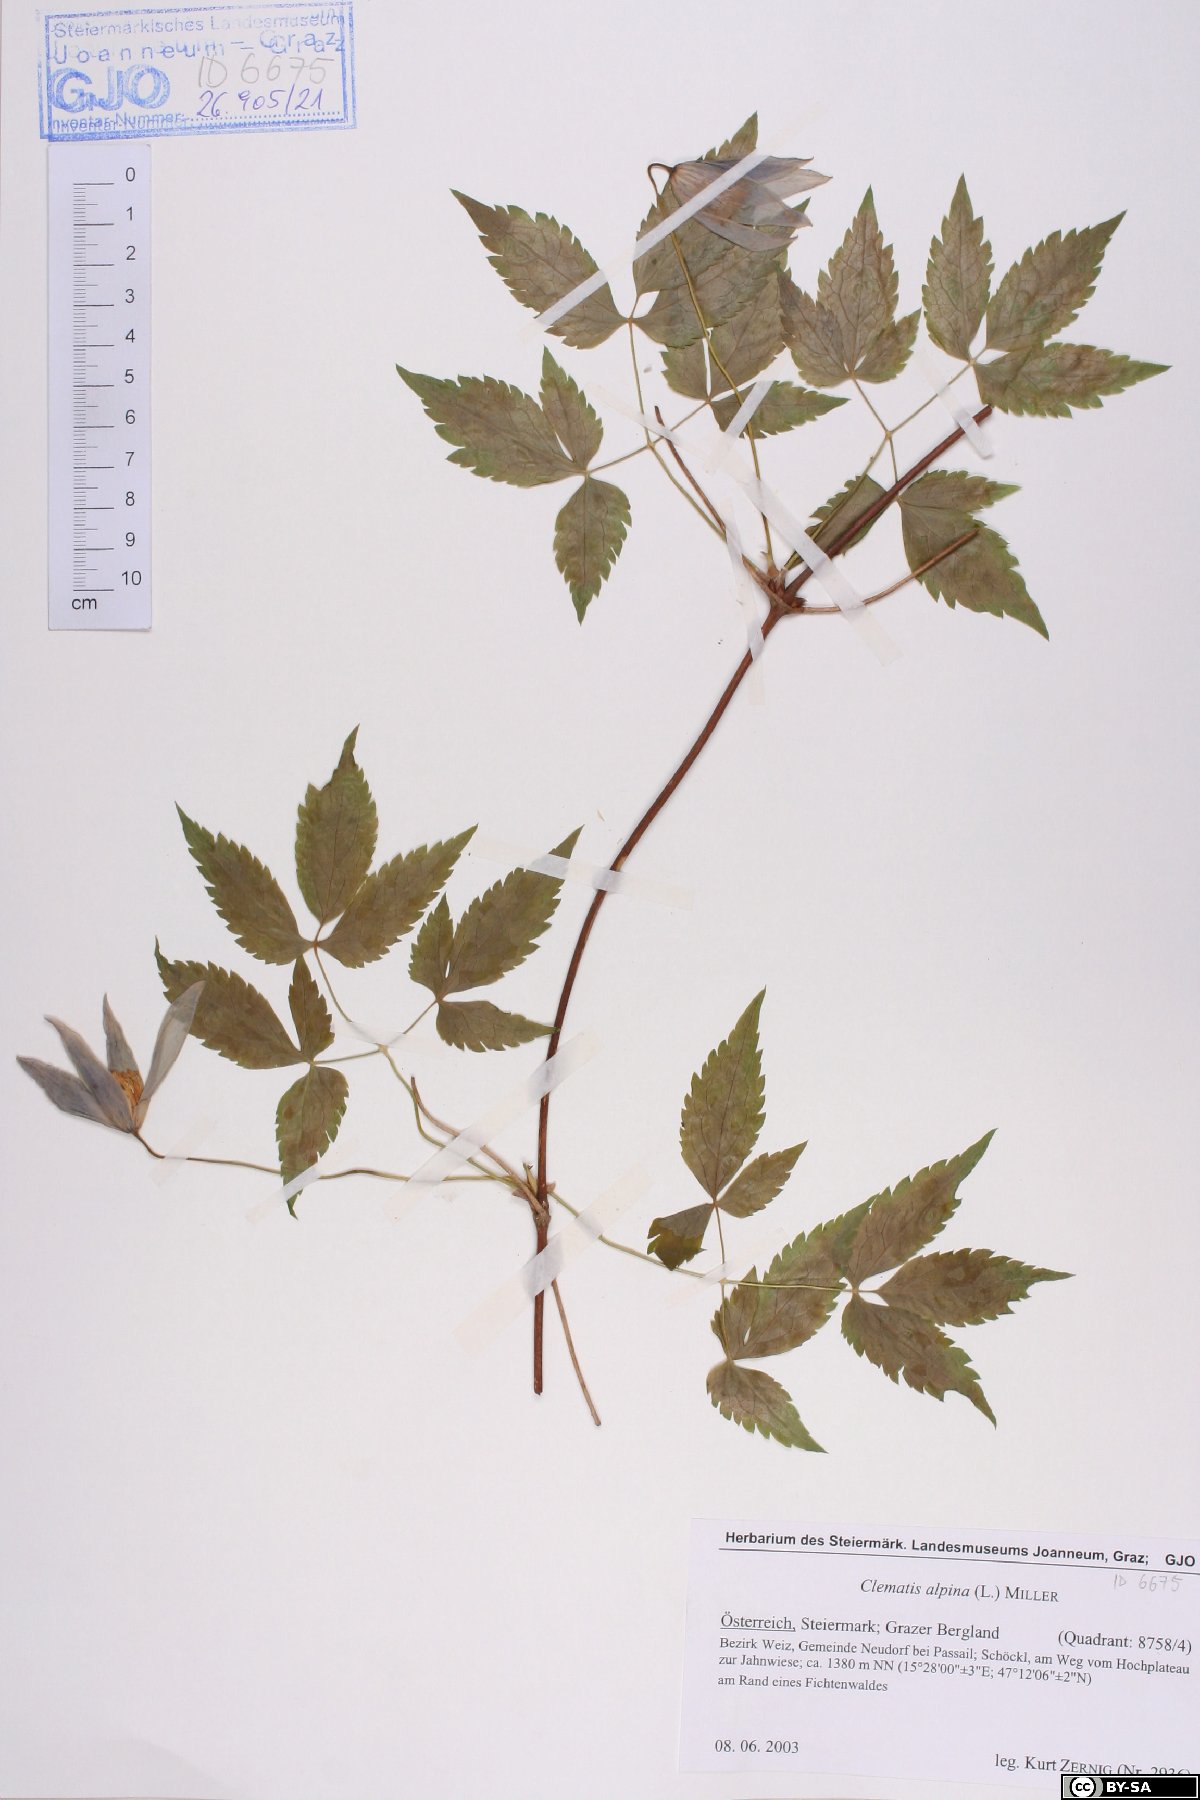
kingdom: Plantae
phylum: Tracheophyta
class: Magnoliopsida
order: Ranunculales
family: Ranunculaceae
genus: Clematis
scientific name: Clematis alpina
